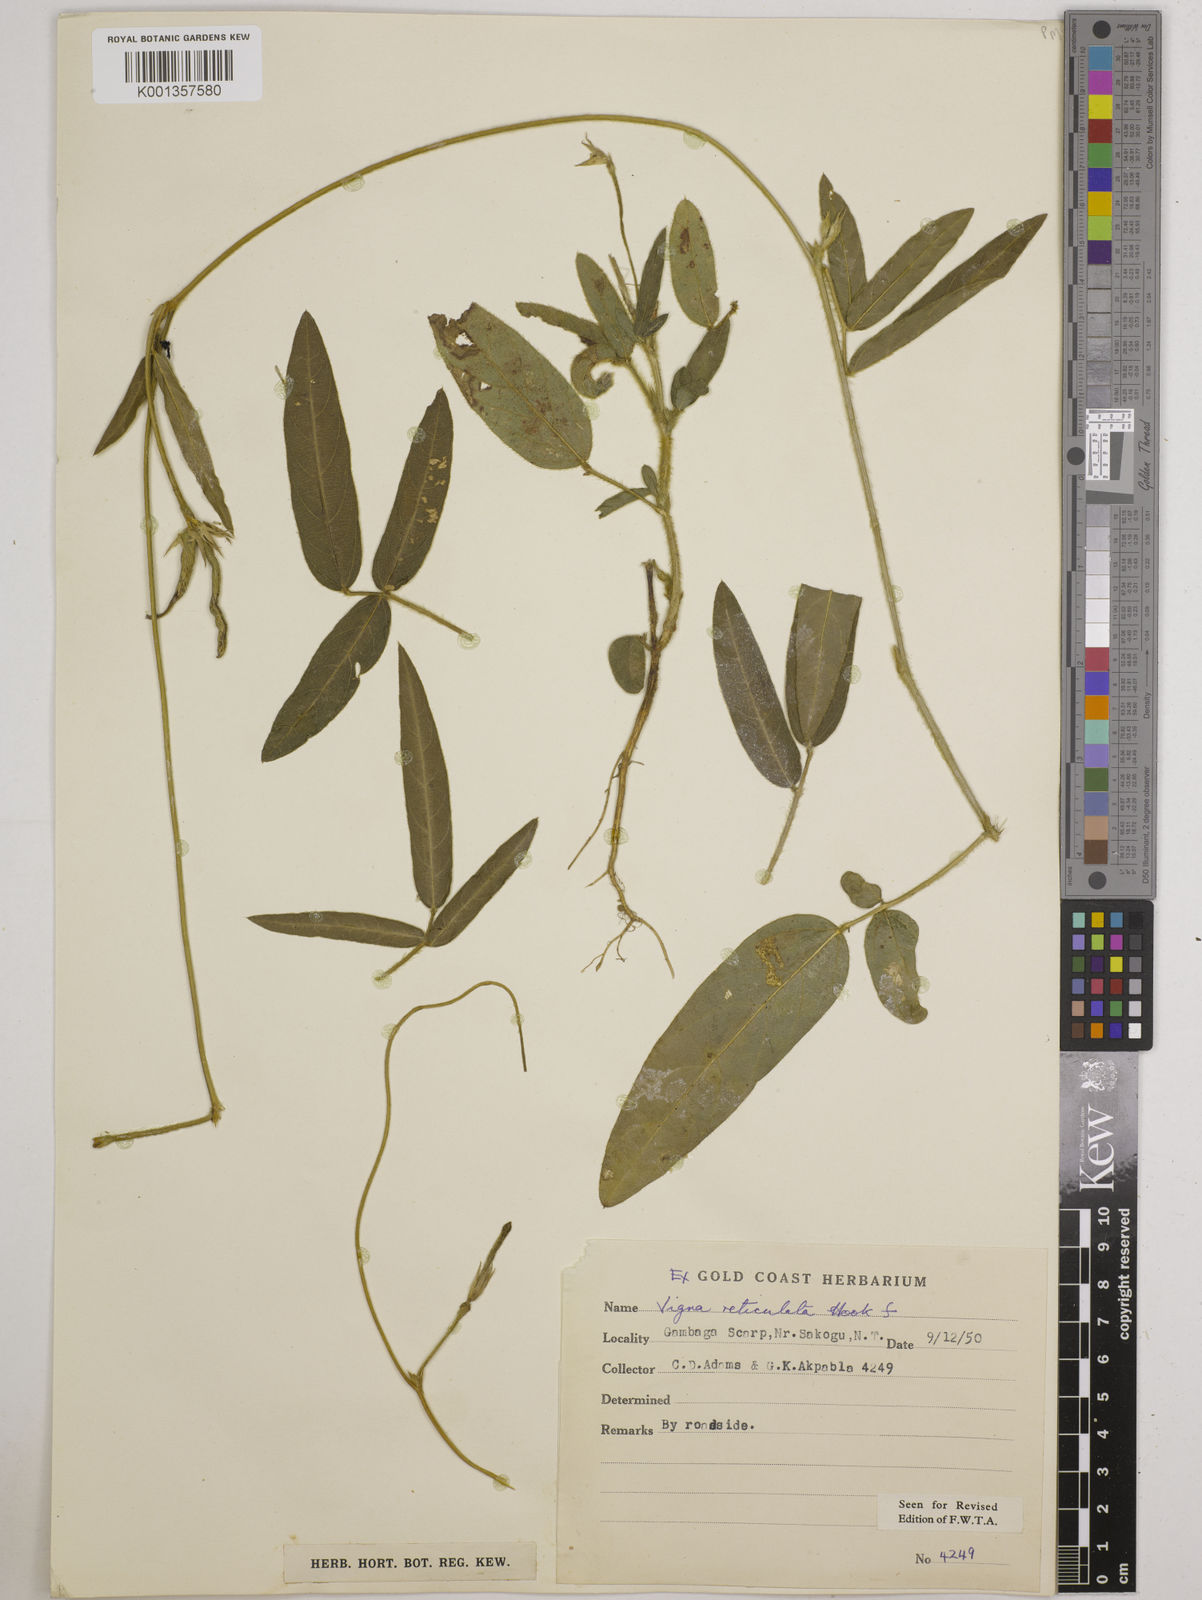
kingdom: Plantae
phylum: Tracheophyta
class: Magnoliopsida
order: Fabales
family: Fabaceae
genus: Vigna
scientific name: Vigna reticulata
